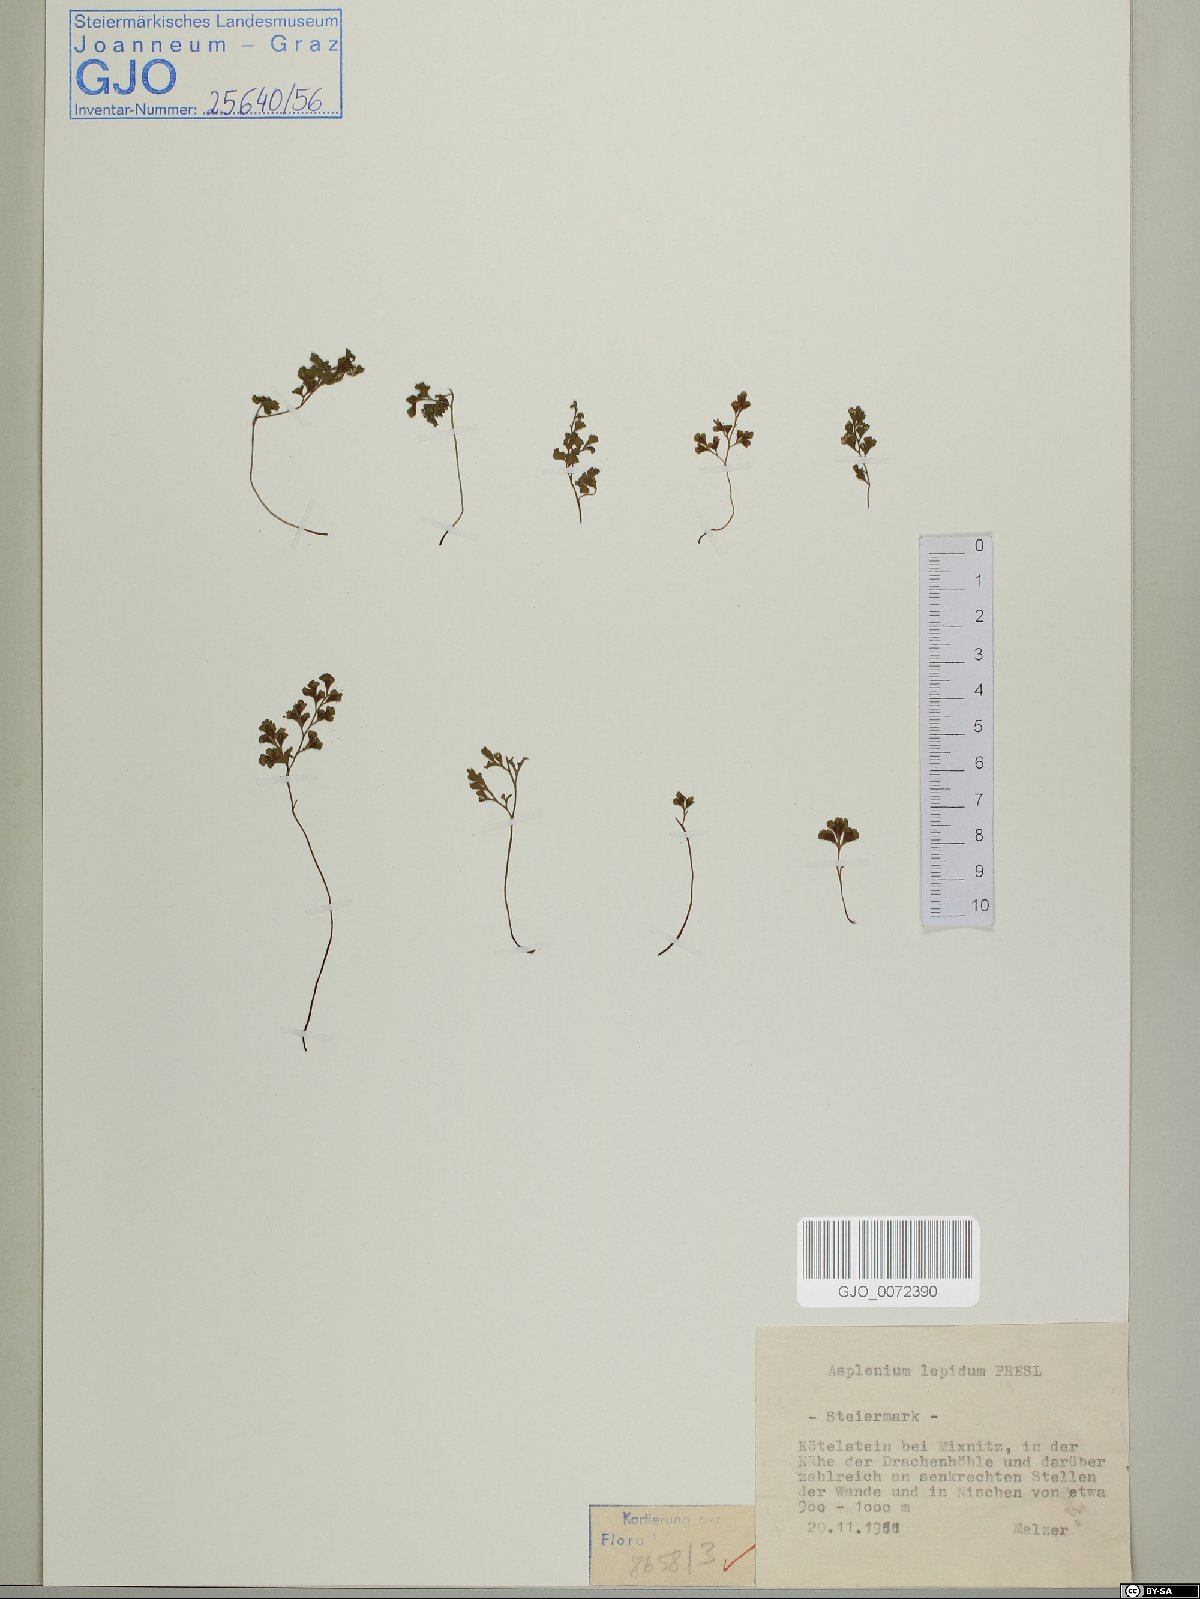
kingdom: Plantae
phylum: Tracheophyta
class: Polypodiopsida
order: Polypodiales
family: Aspleniaceae
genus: Asplenium
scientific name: Asplenium lepidum
